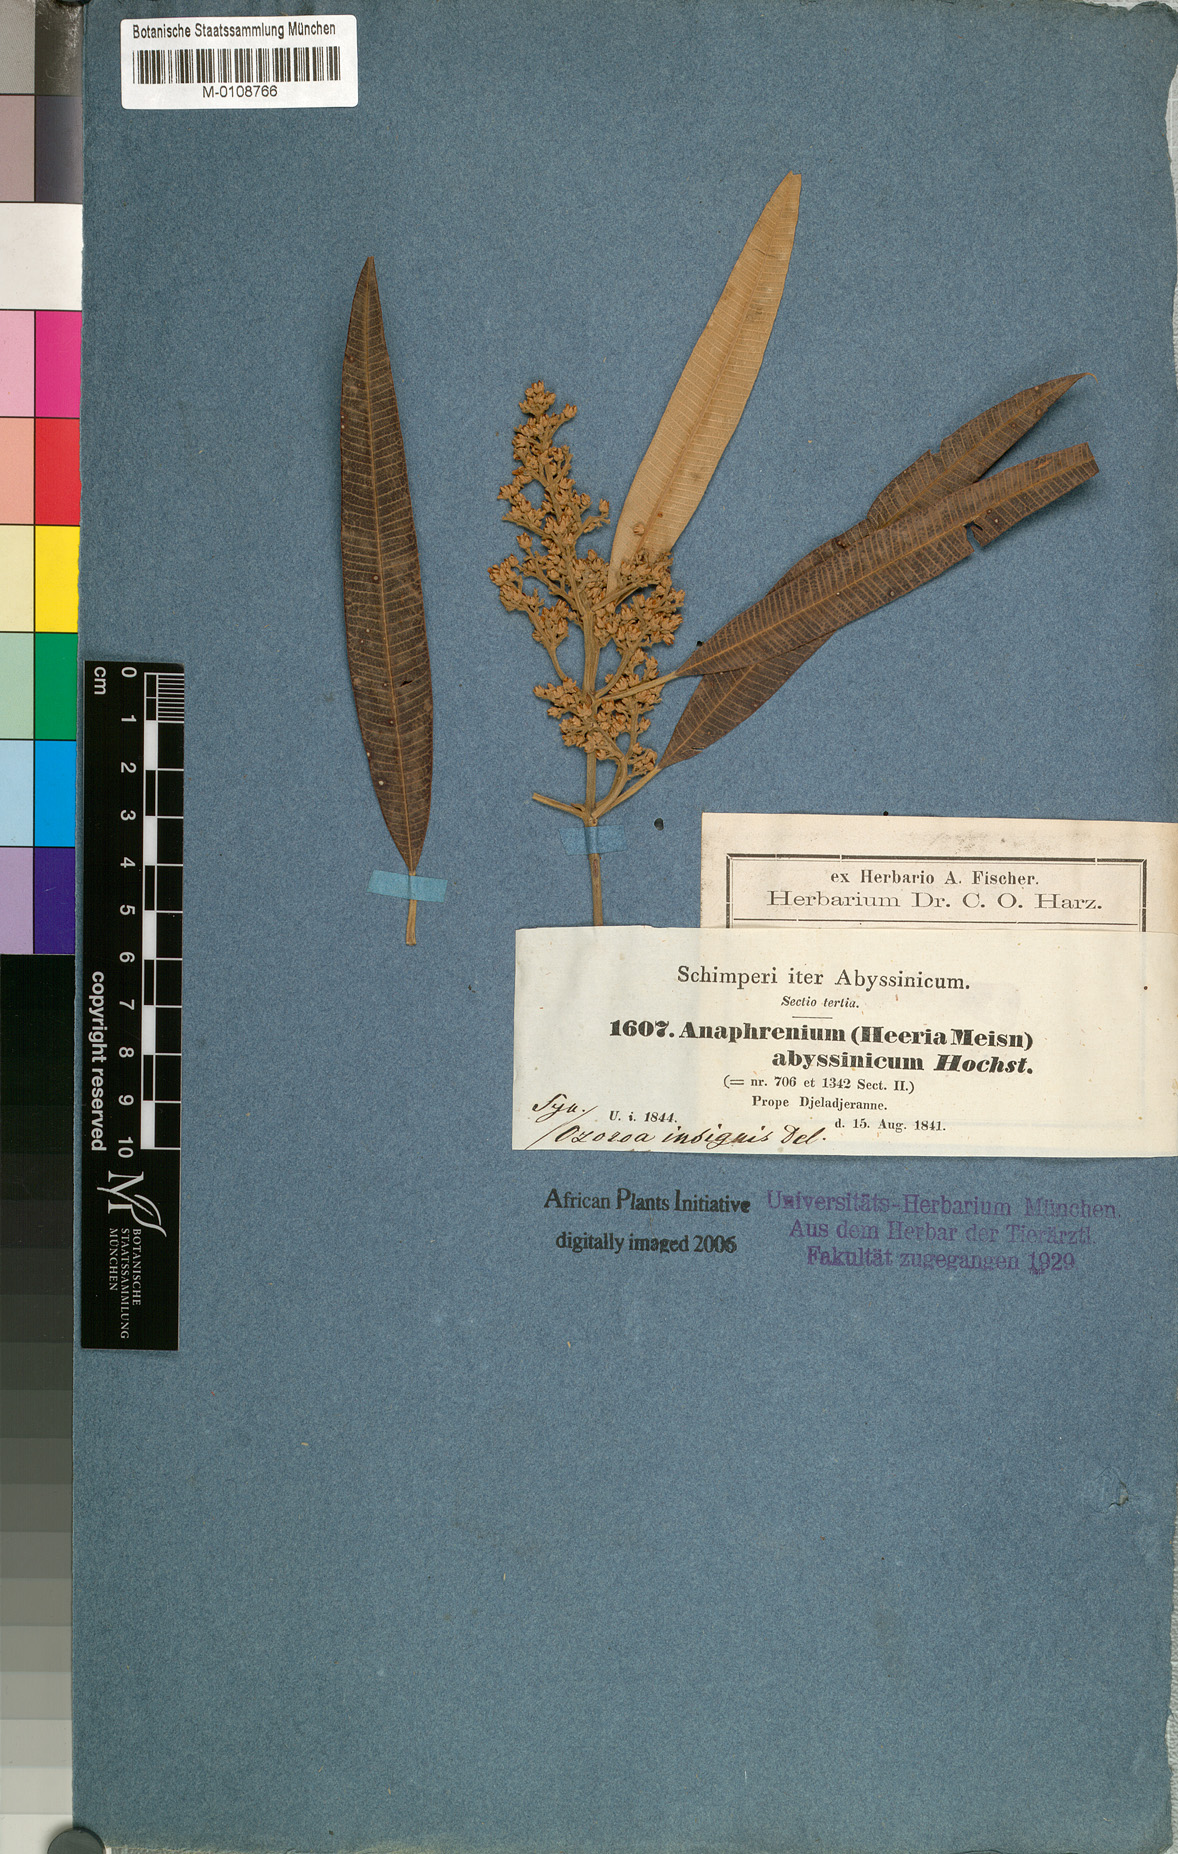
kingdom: Plantae
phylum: Tracheophyta
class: Magnoliopsida
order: Sapindales
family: Anacardiaceae
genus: Ozoroa
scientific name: Ozoroa insignis
